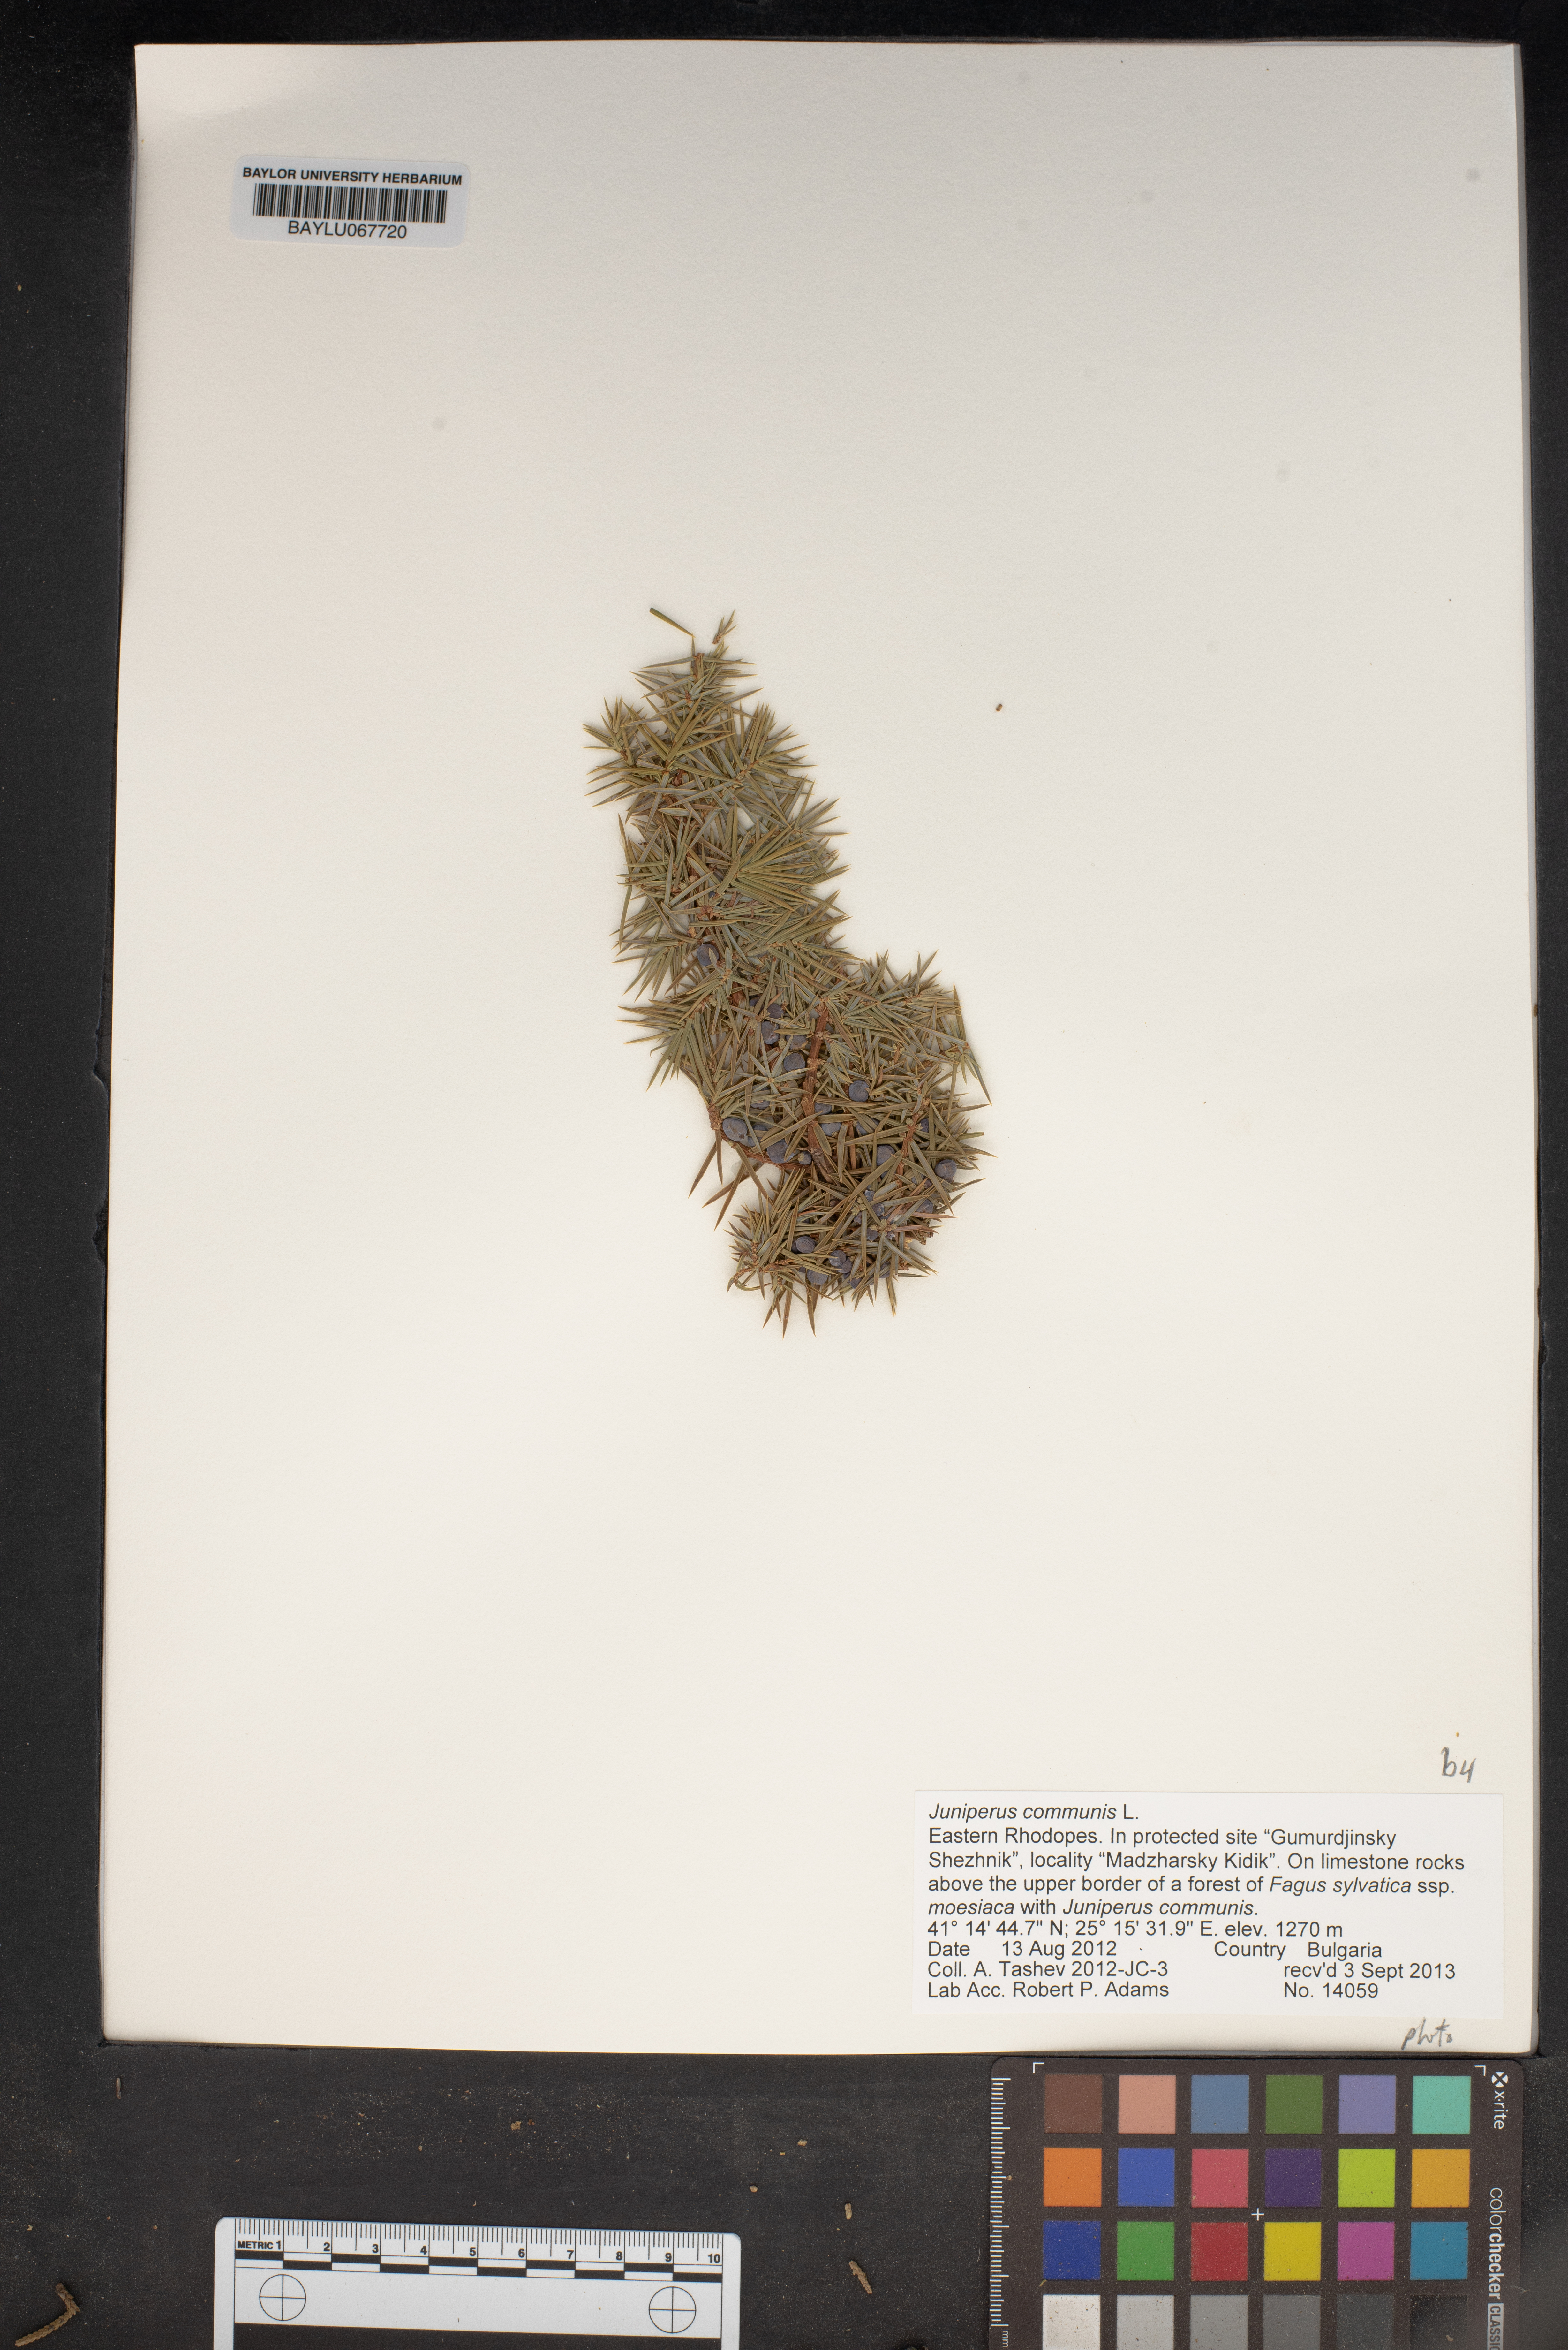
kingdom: Plantae
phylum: Tracheophyta
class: Pinopsida
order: Pinales
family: Cupressaceae
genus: Juniperus
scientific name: Juniperus communis
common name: Common juniper
